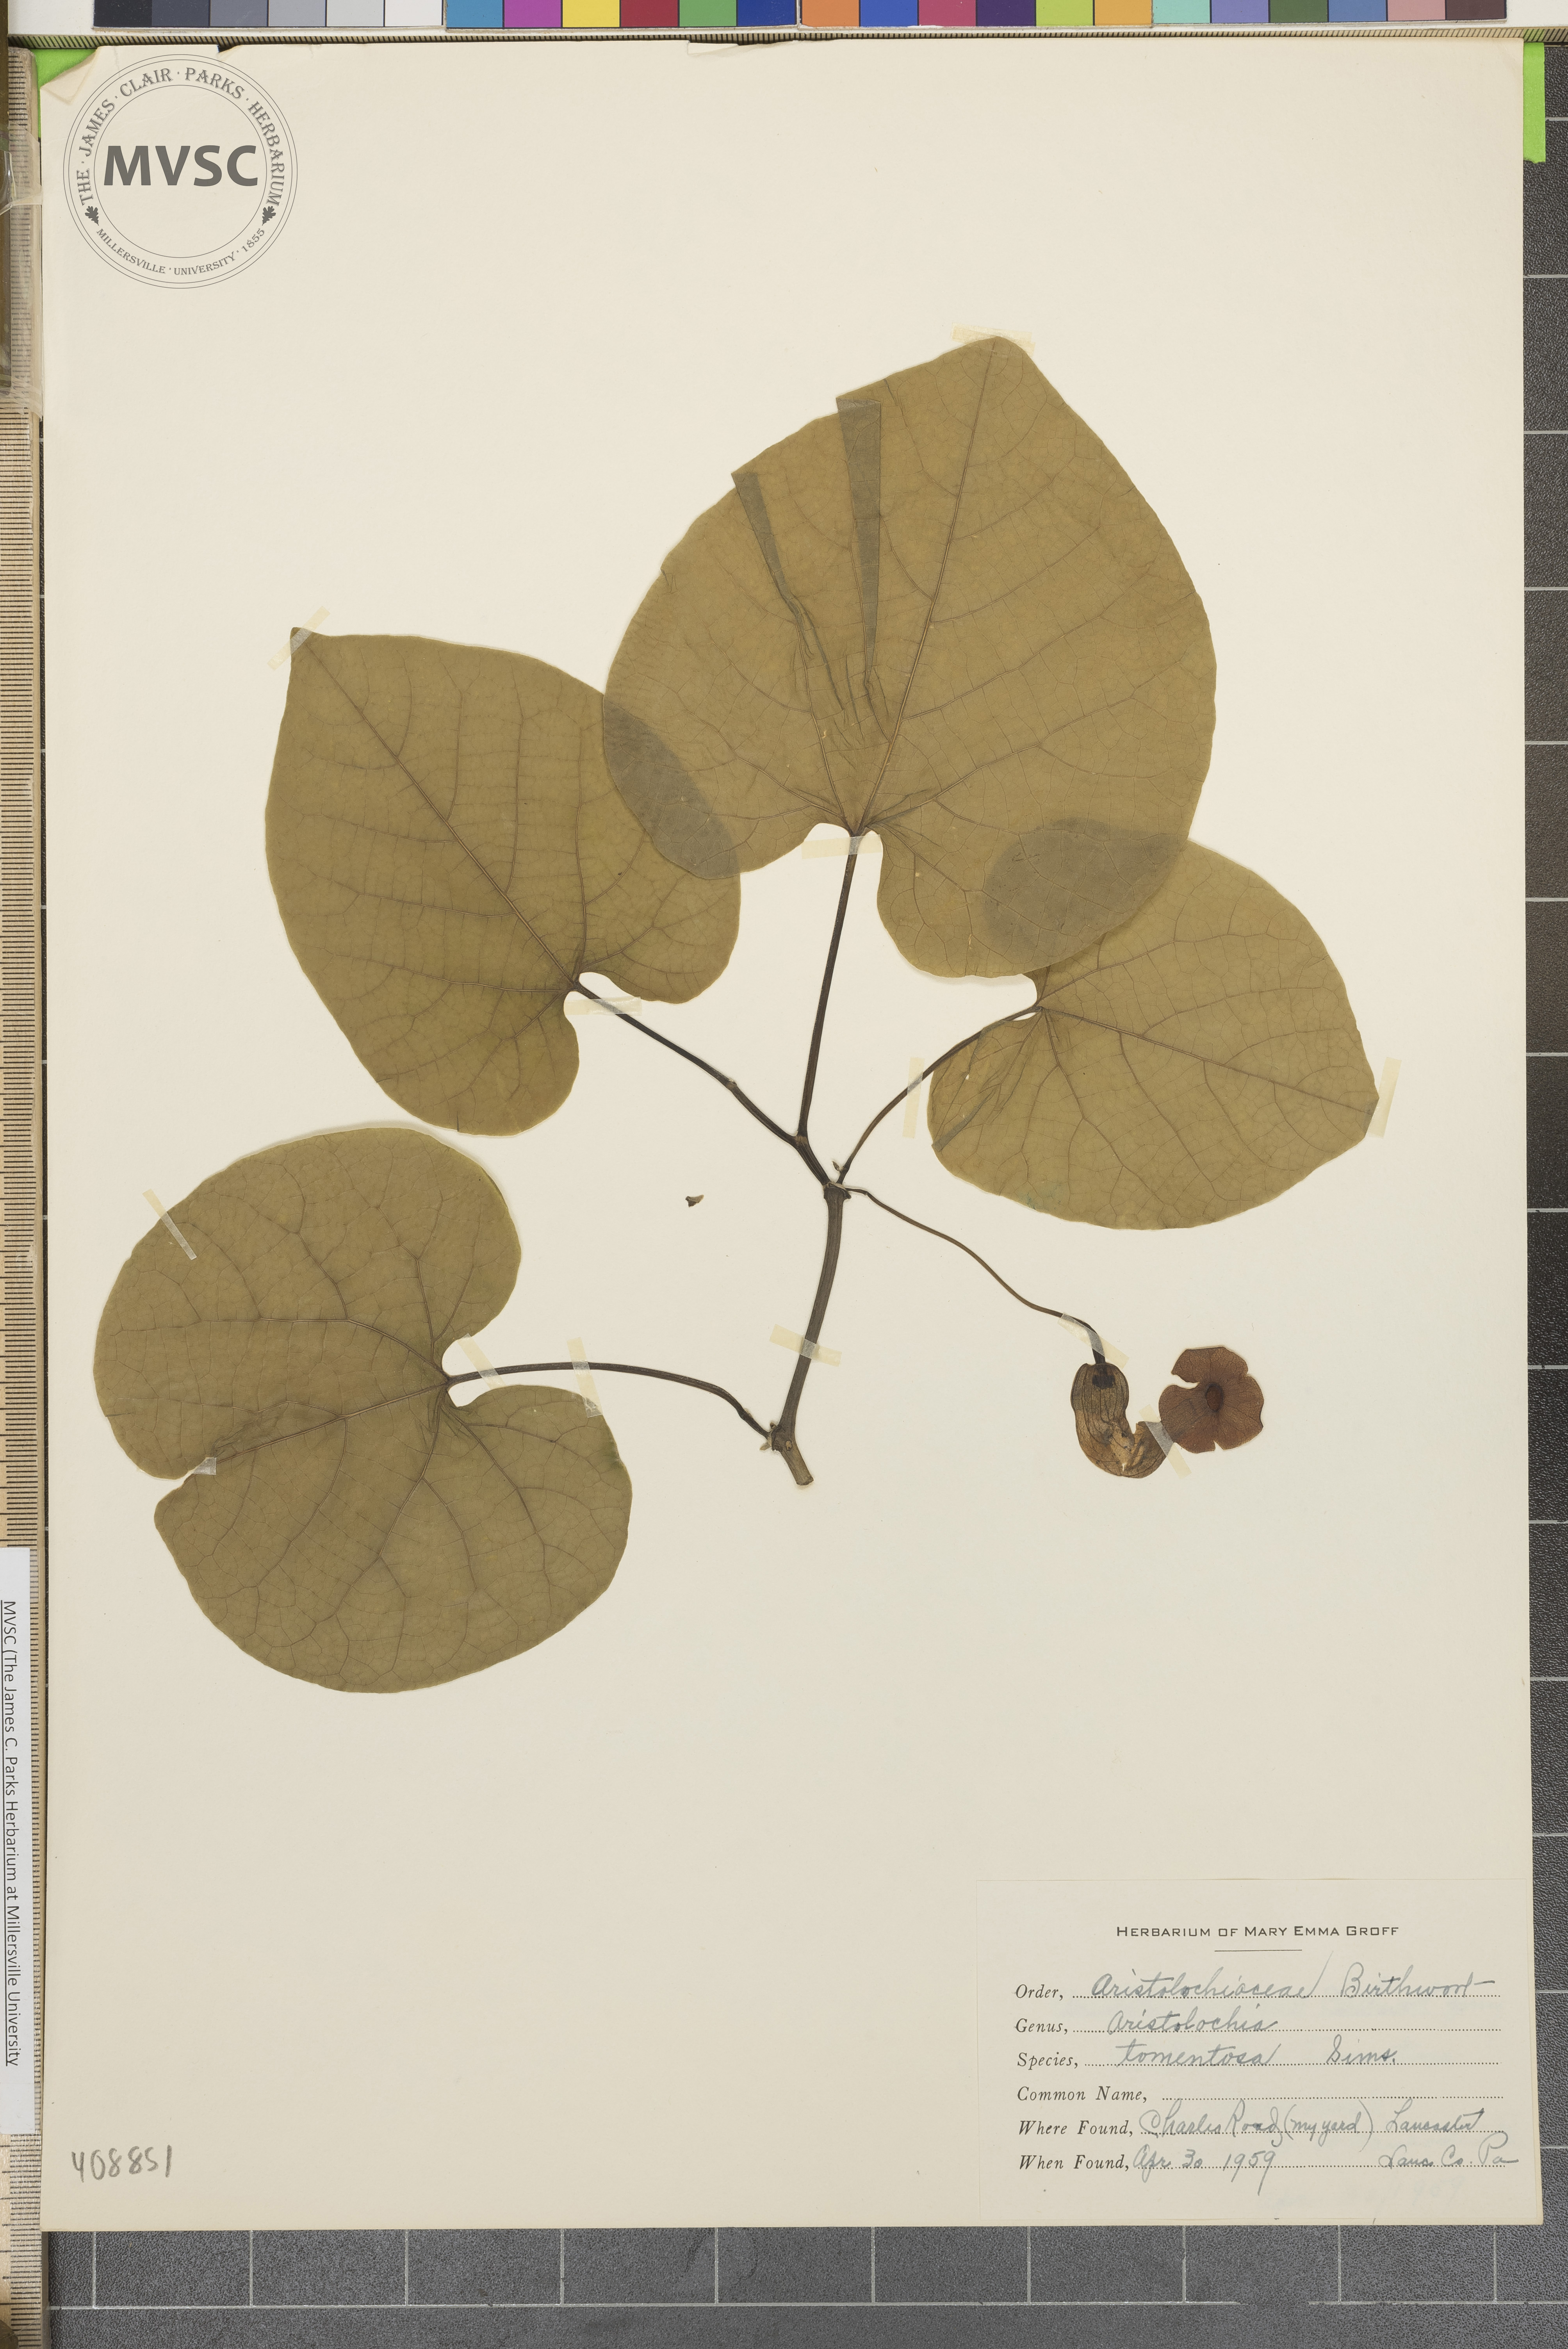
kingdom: Plantae
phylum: Tracheophyta
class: Magnoliopsida
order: Piperales
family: Aristolochiaceae
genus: Isotrema
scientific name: Isotrema tomentosum
